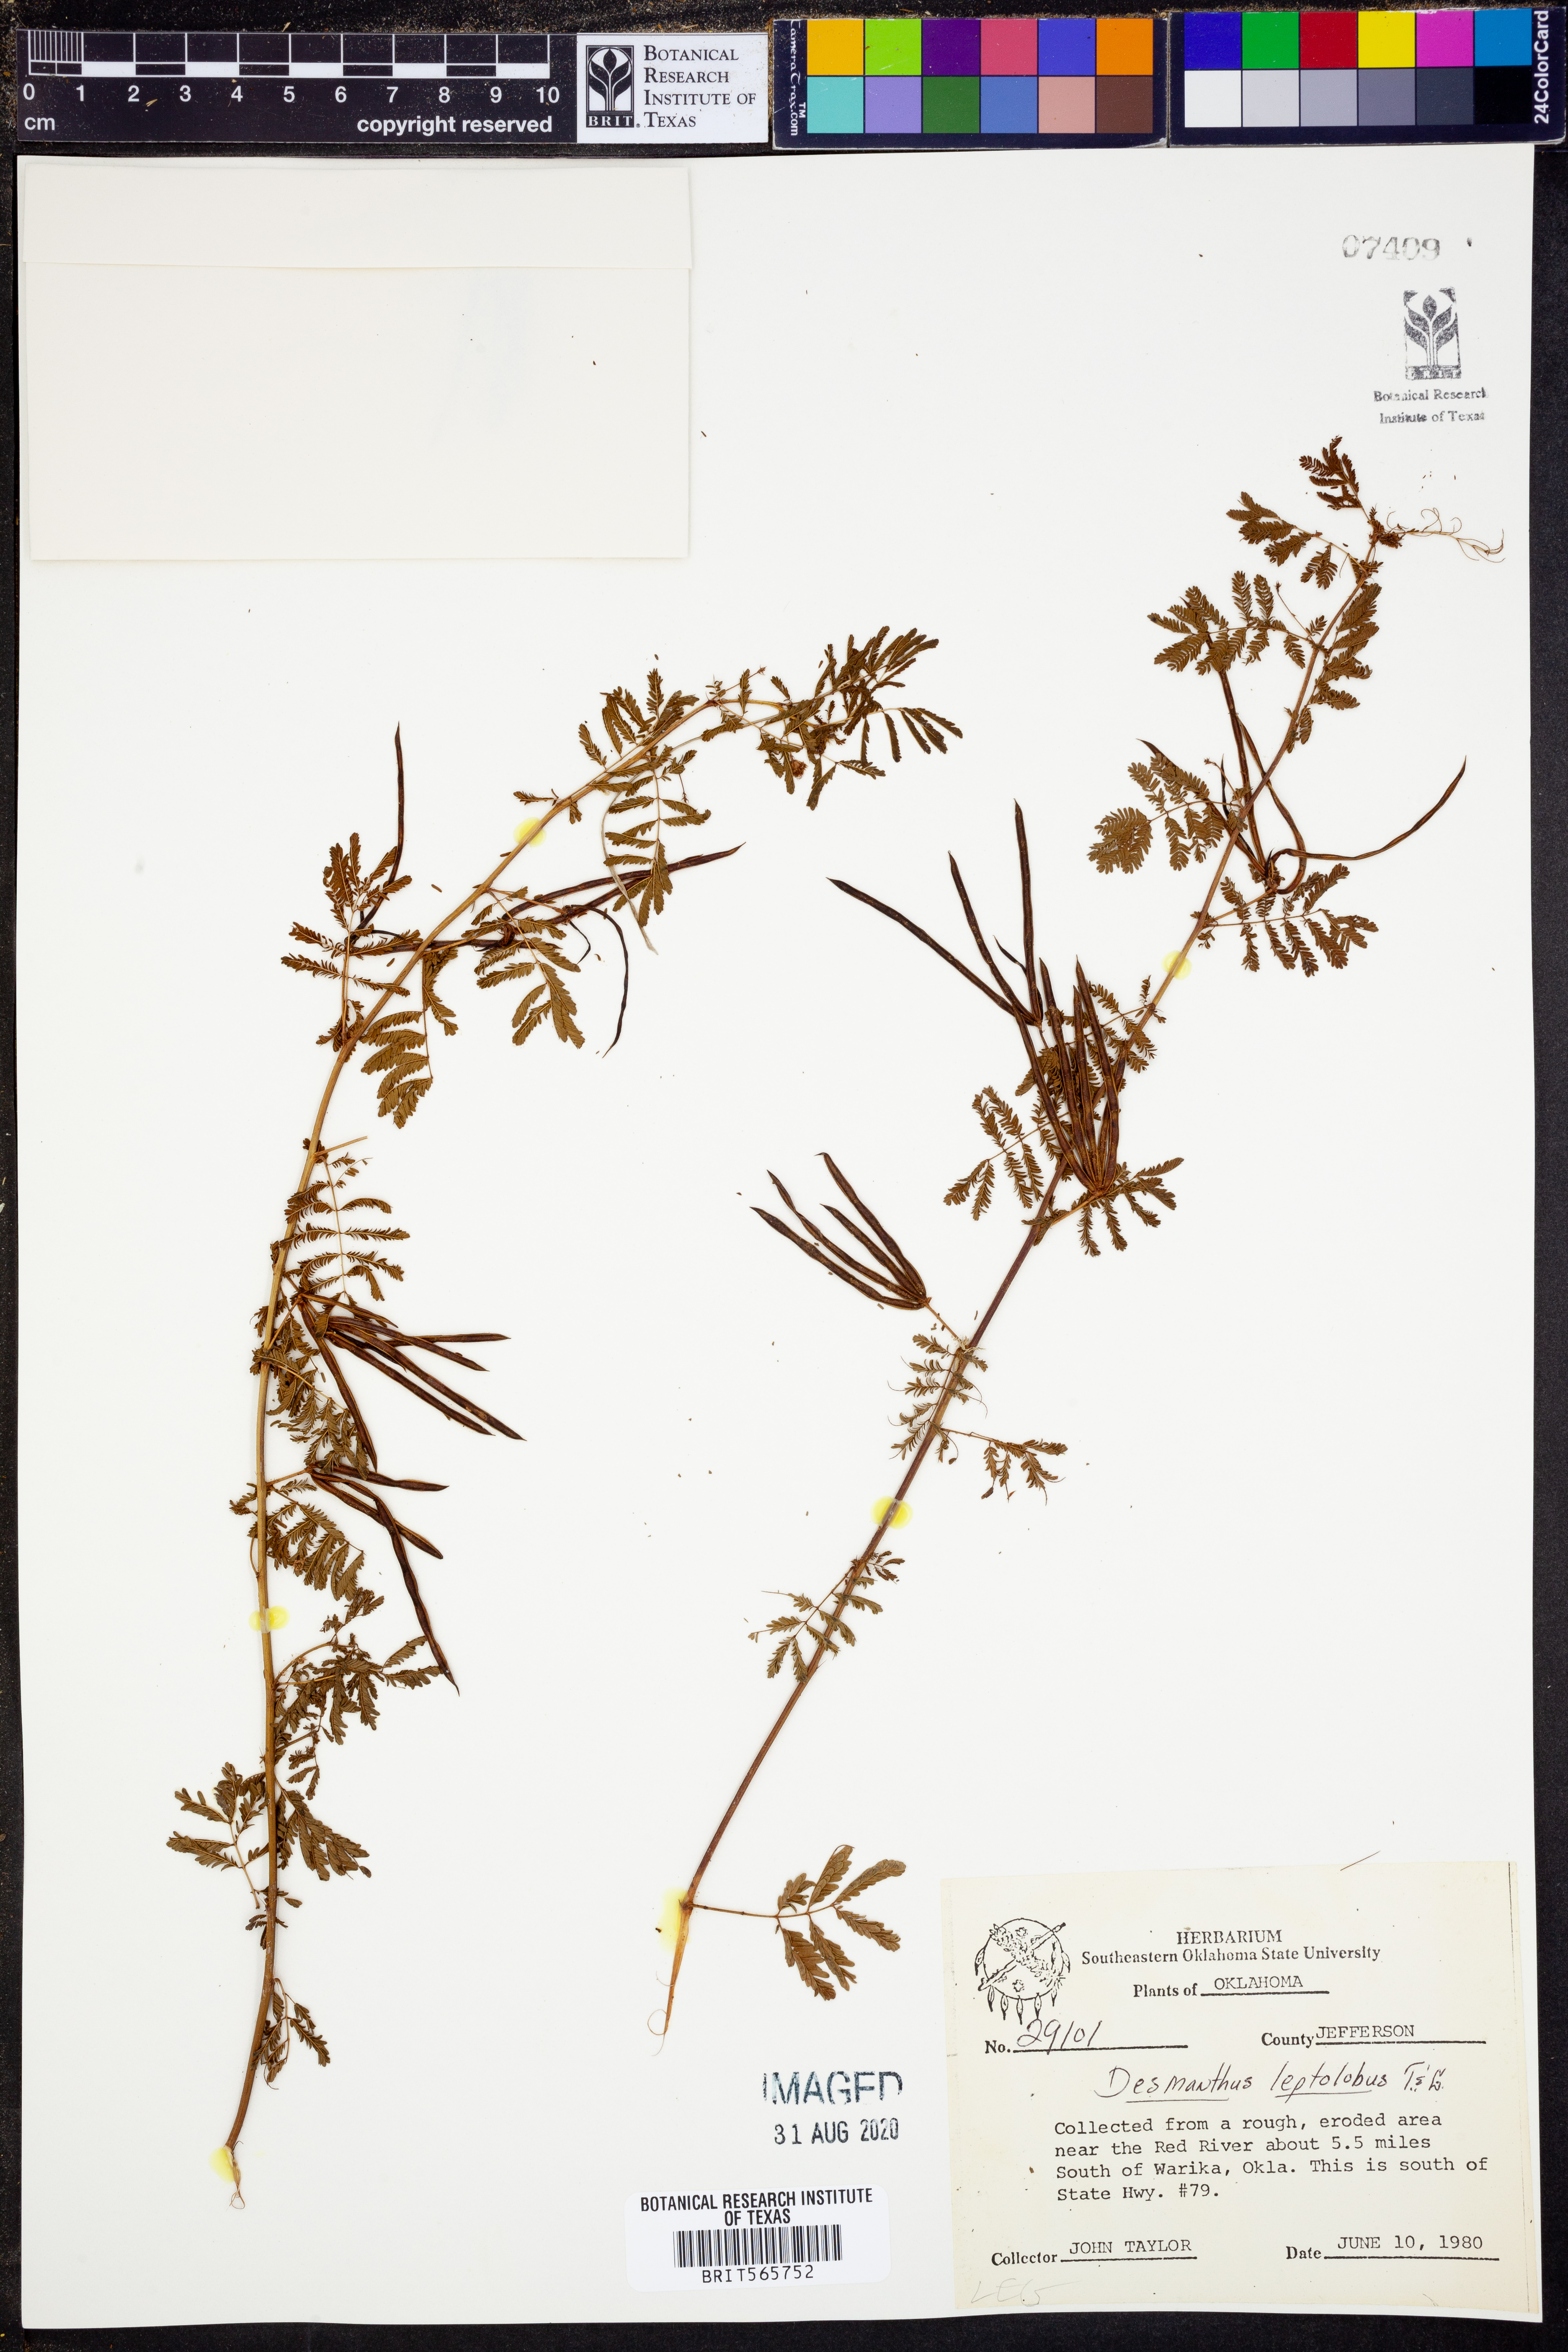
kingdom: Plantae
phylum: Tracheophyta
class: Magnoliopsida
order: Fabales
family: Fabaceae
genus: Desmanthus
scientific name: Desmanthus leptolobus
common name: Prairie-mimosa
